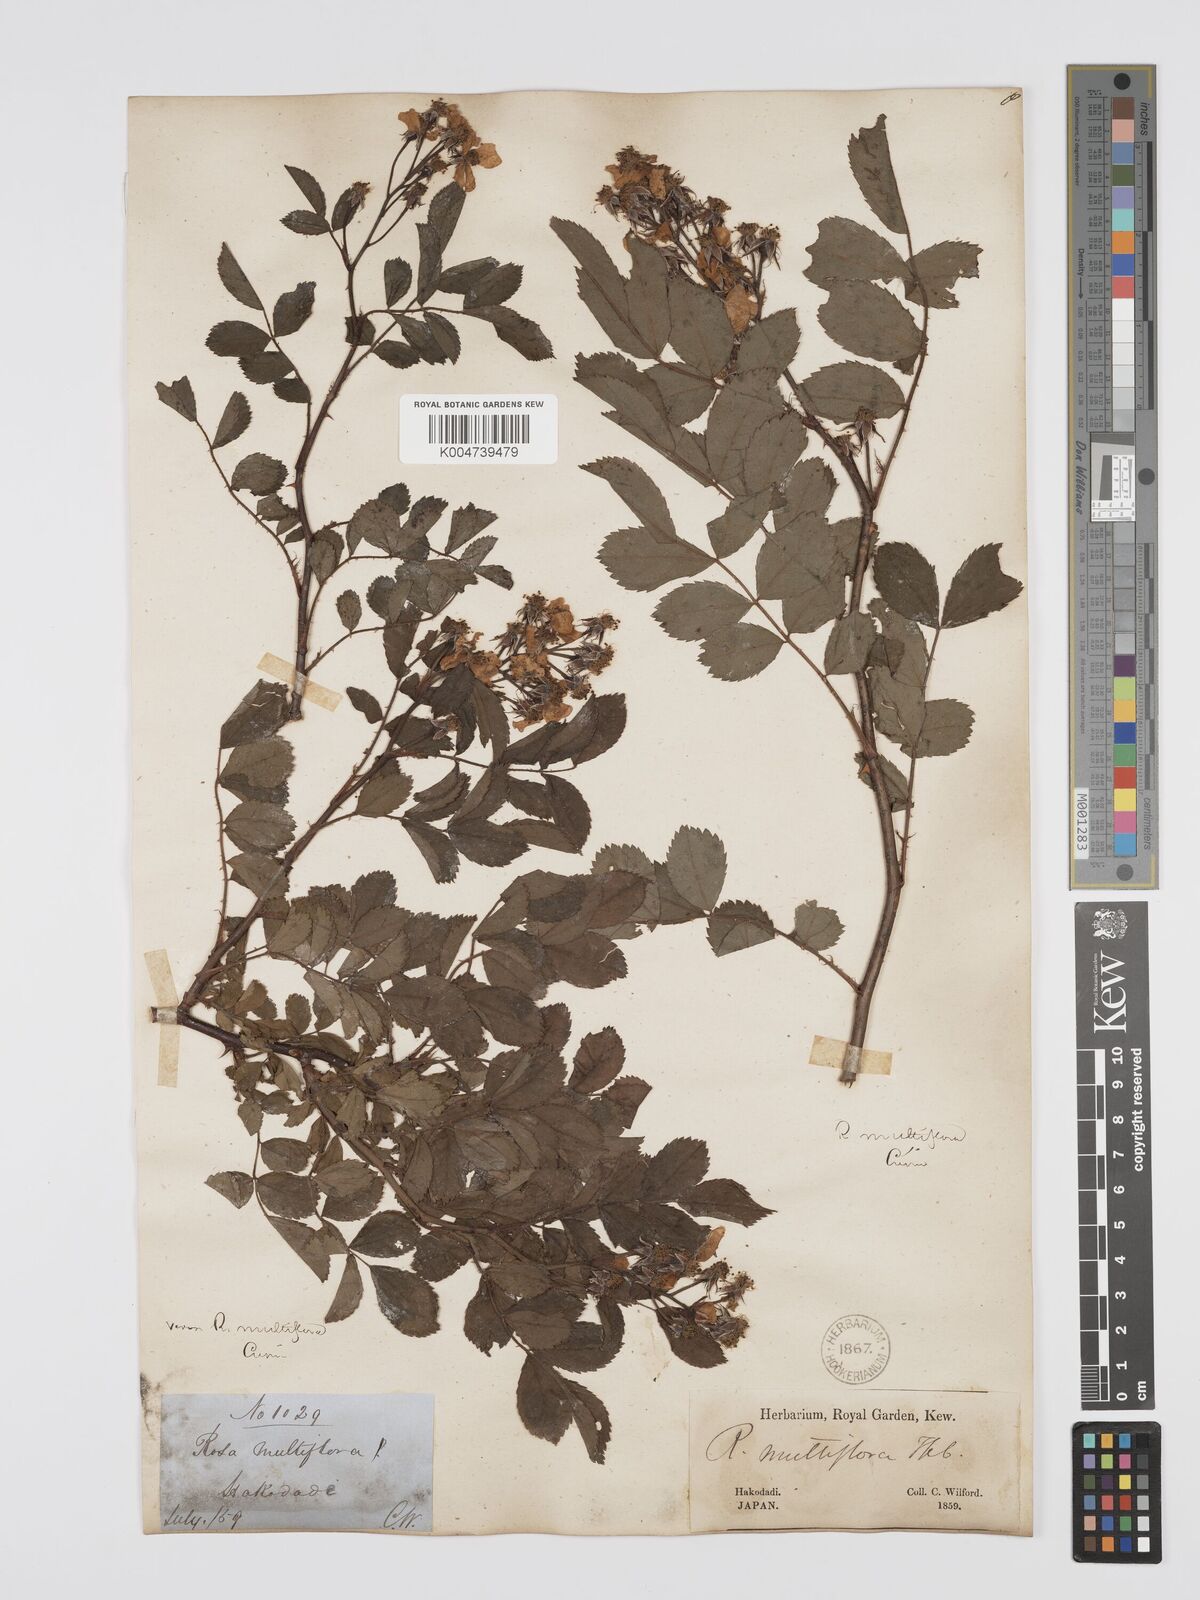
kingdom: Plantae
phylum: Tracheophyta
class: Magnoliopsida
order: Rosales
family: Rosaceae
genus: Rosa
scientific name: Rosa
